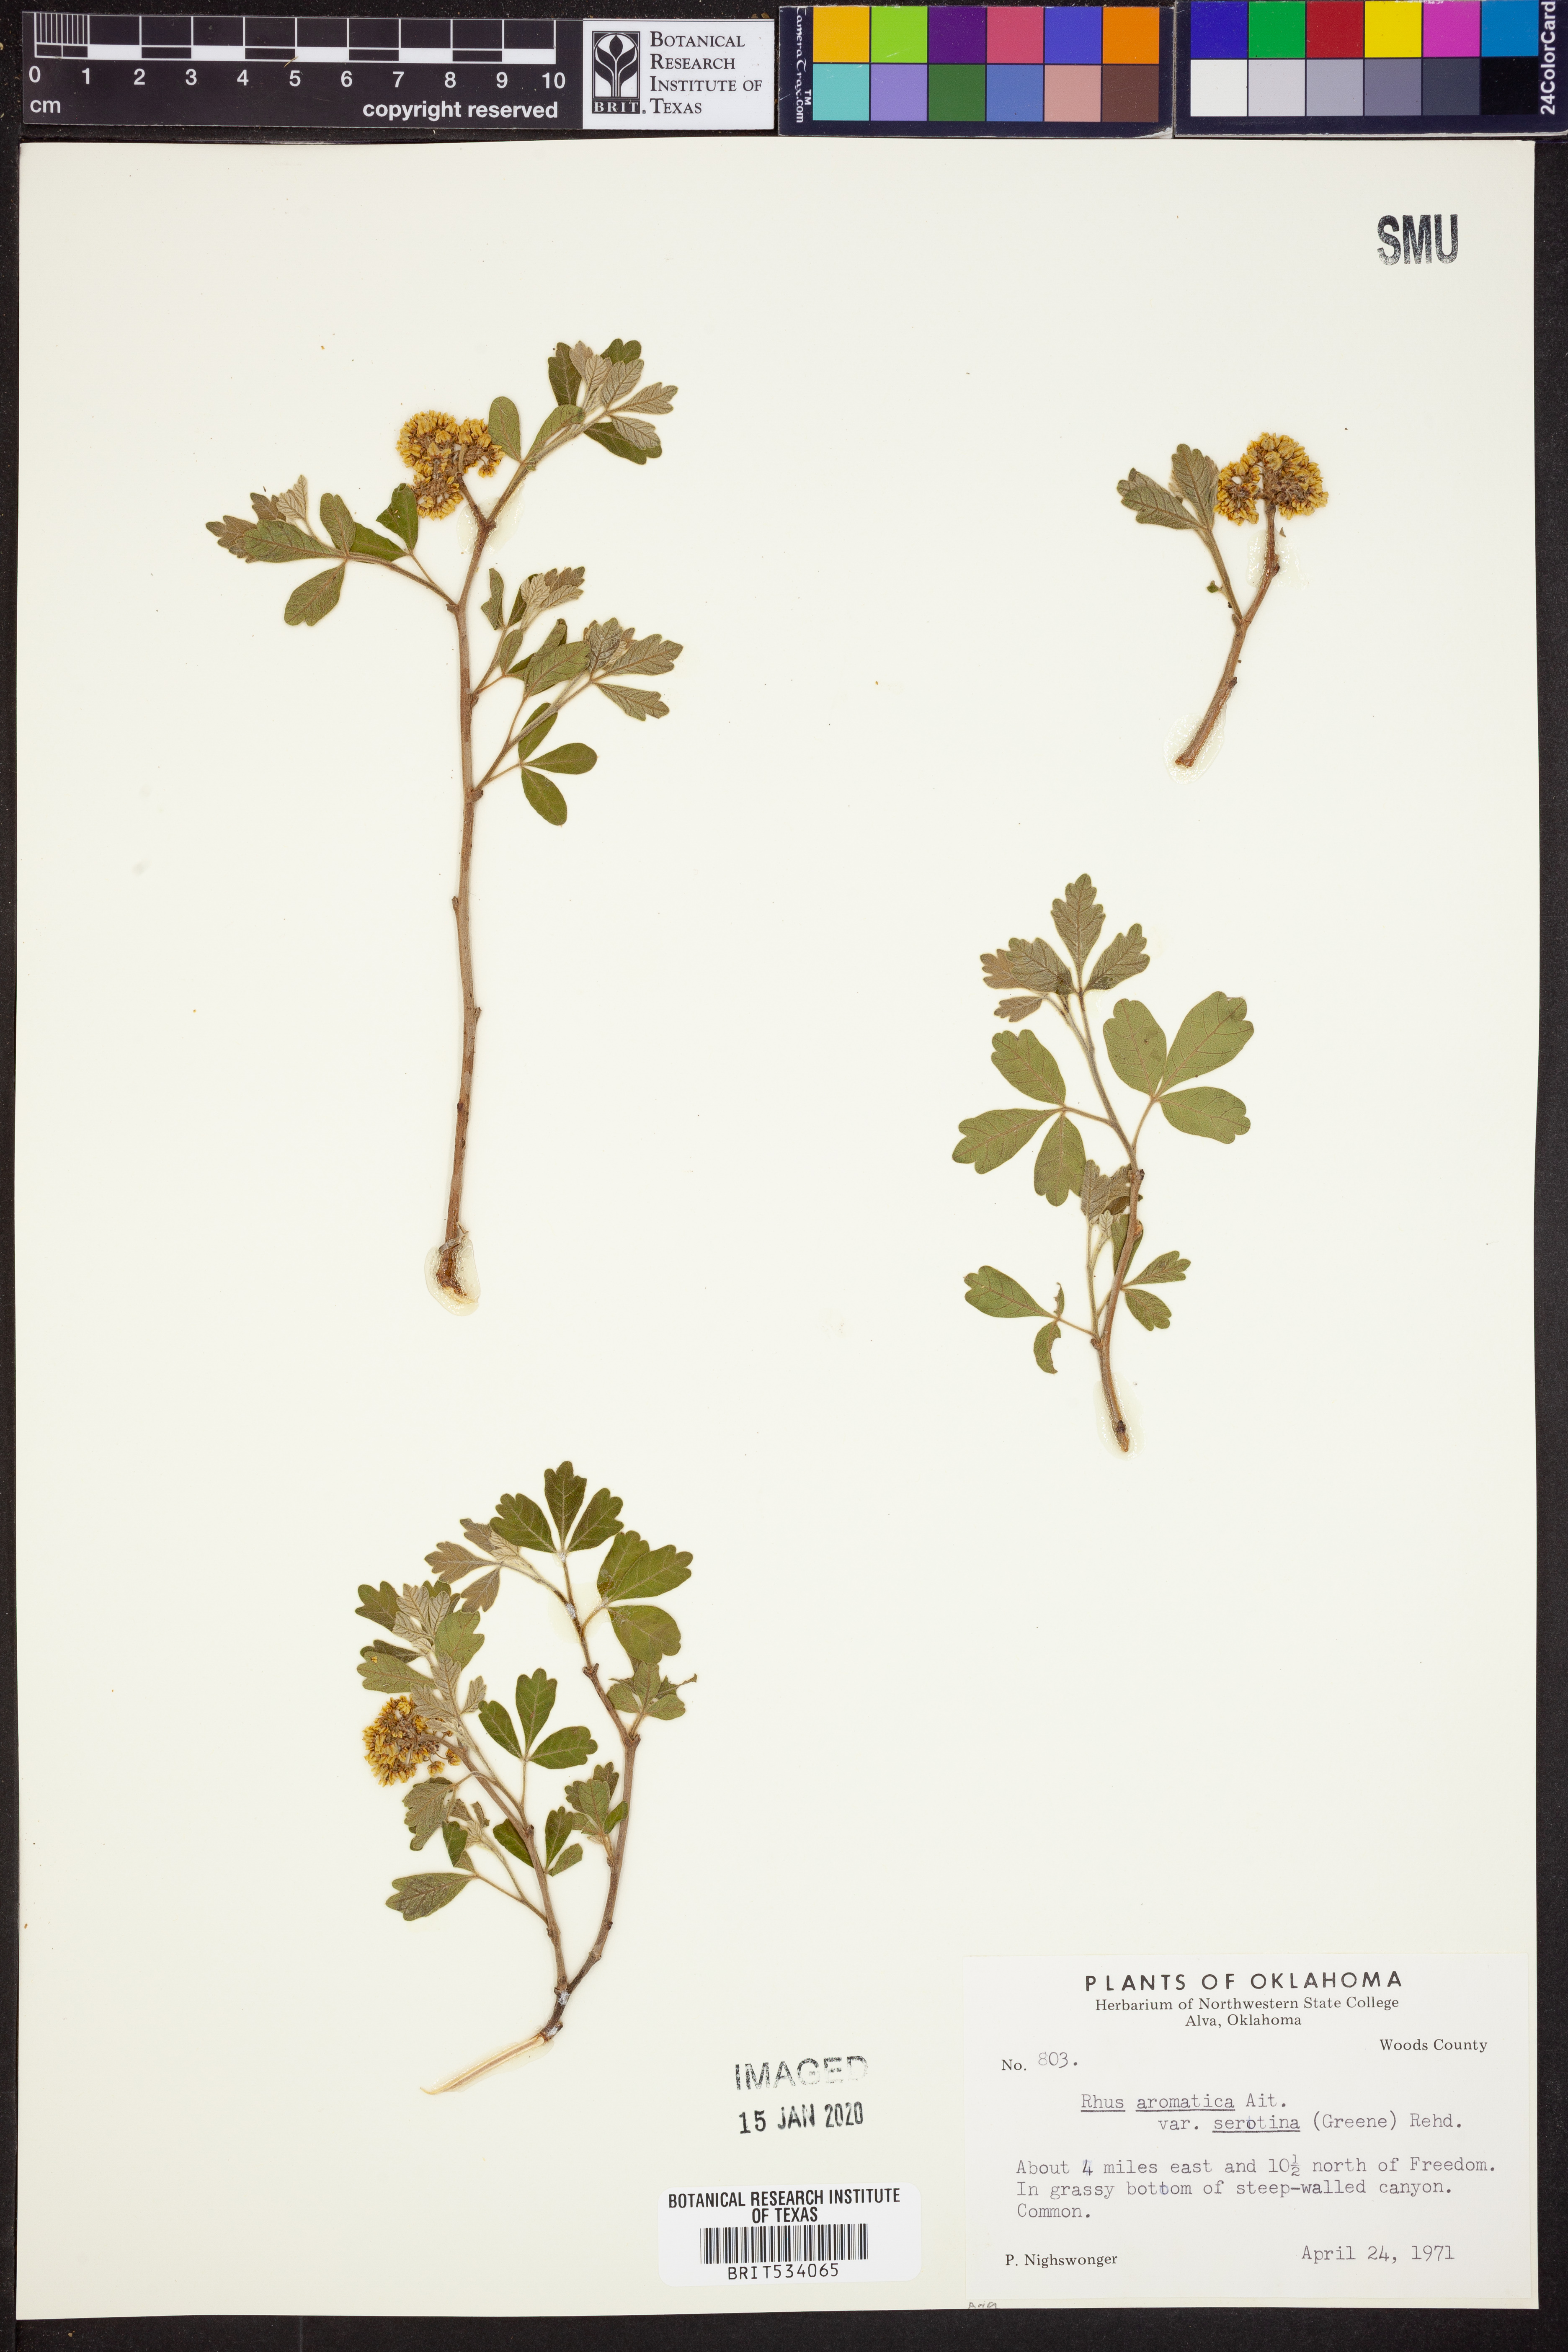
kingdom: Plantae
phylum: Tracheophyta
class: Magnoliopsida
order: Sapindales
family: Anacardiaceae
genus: Rhus
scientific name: Rhus aromatica
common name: Aromatic sumac
